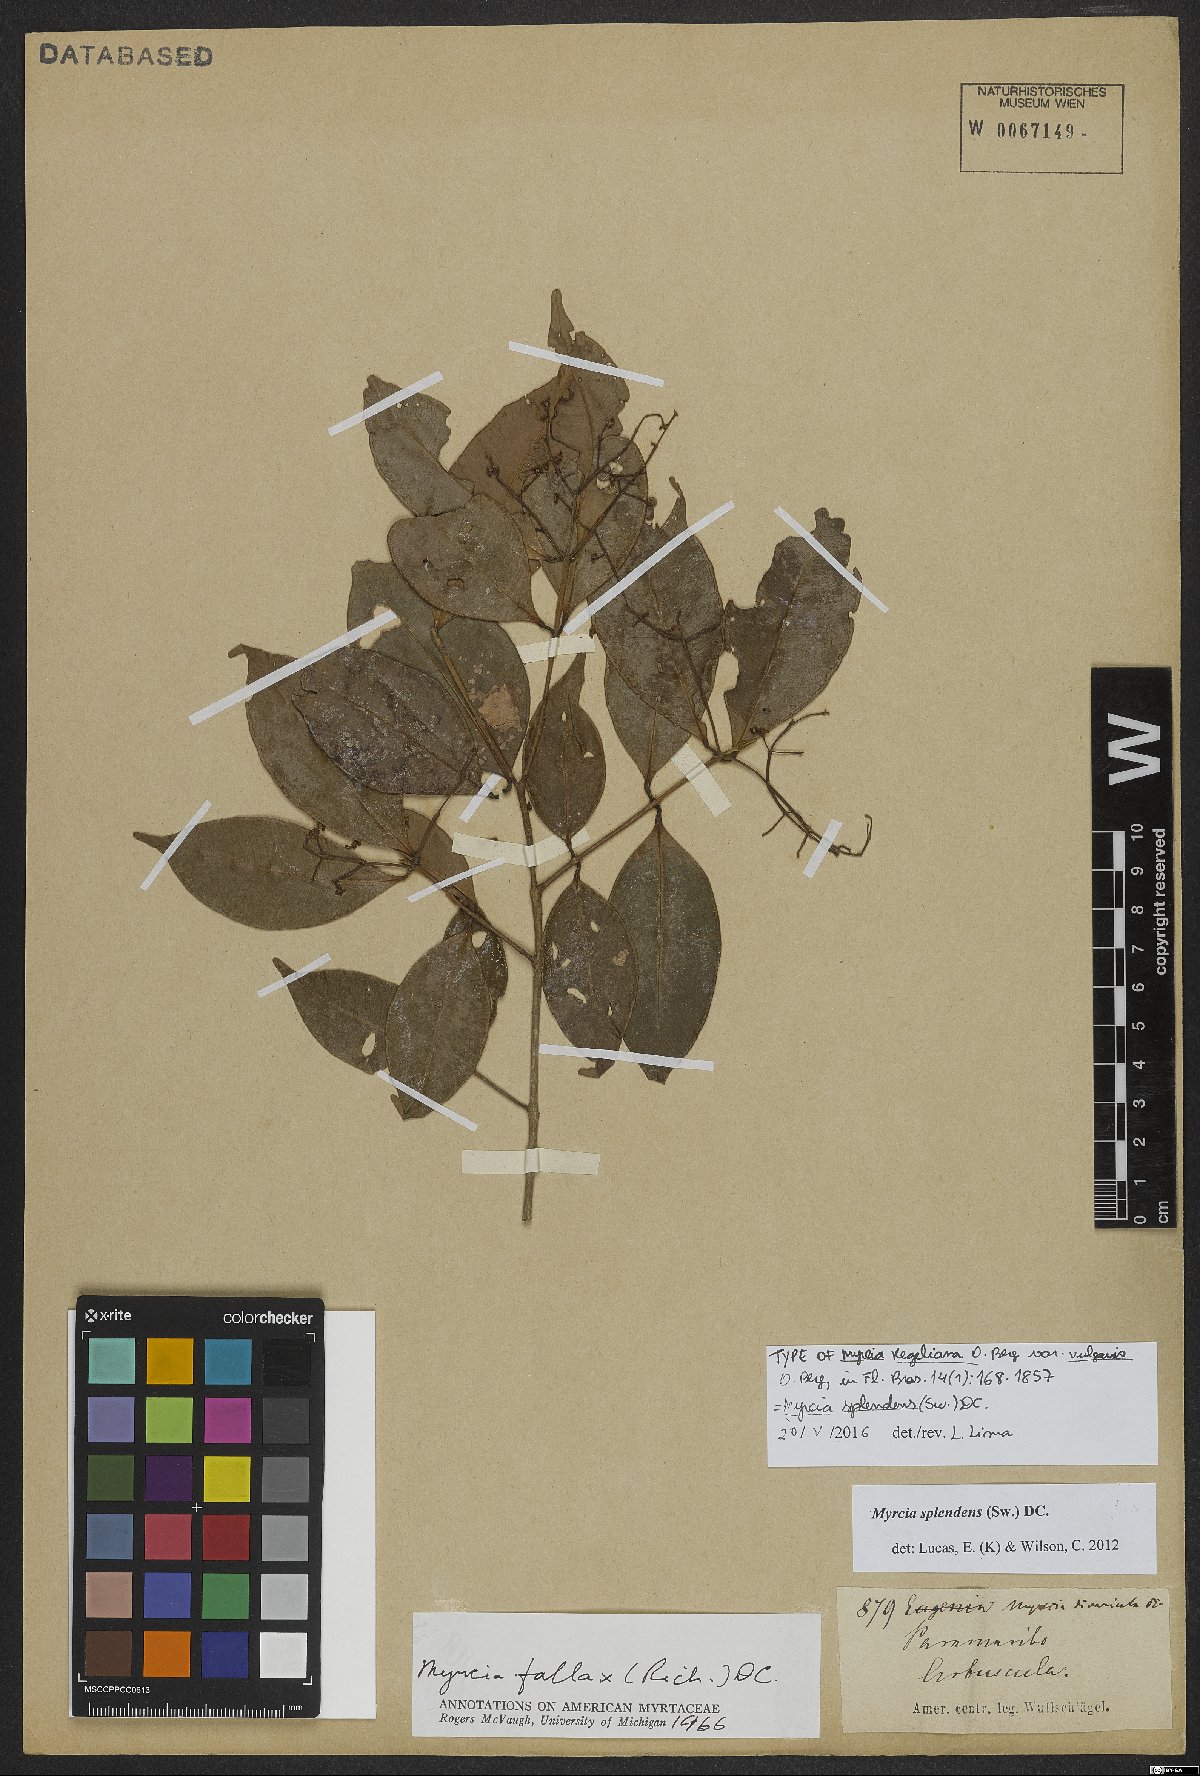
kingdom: Plantae
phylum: Tracheophyta
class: Magnoliopsida
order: Myrtales
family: Myrtaceae
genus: Myrcia
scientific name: Myrcia splendens
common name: Surinam cherry
